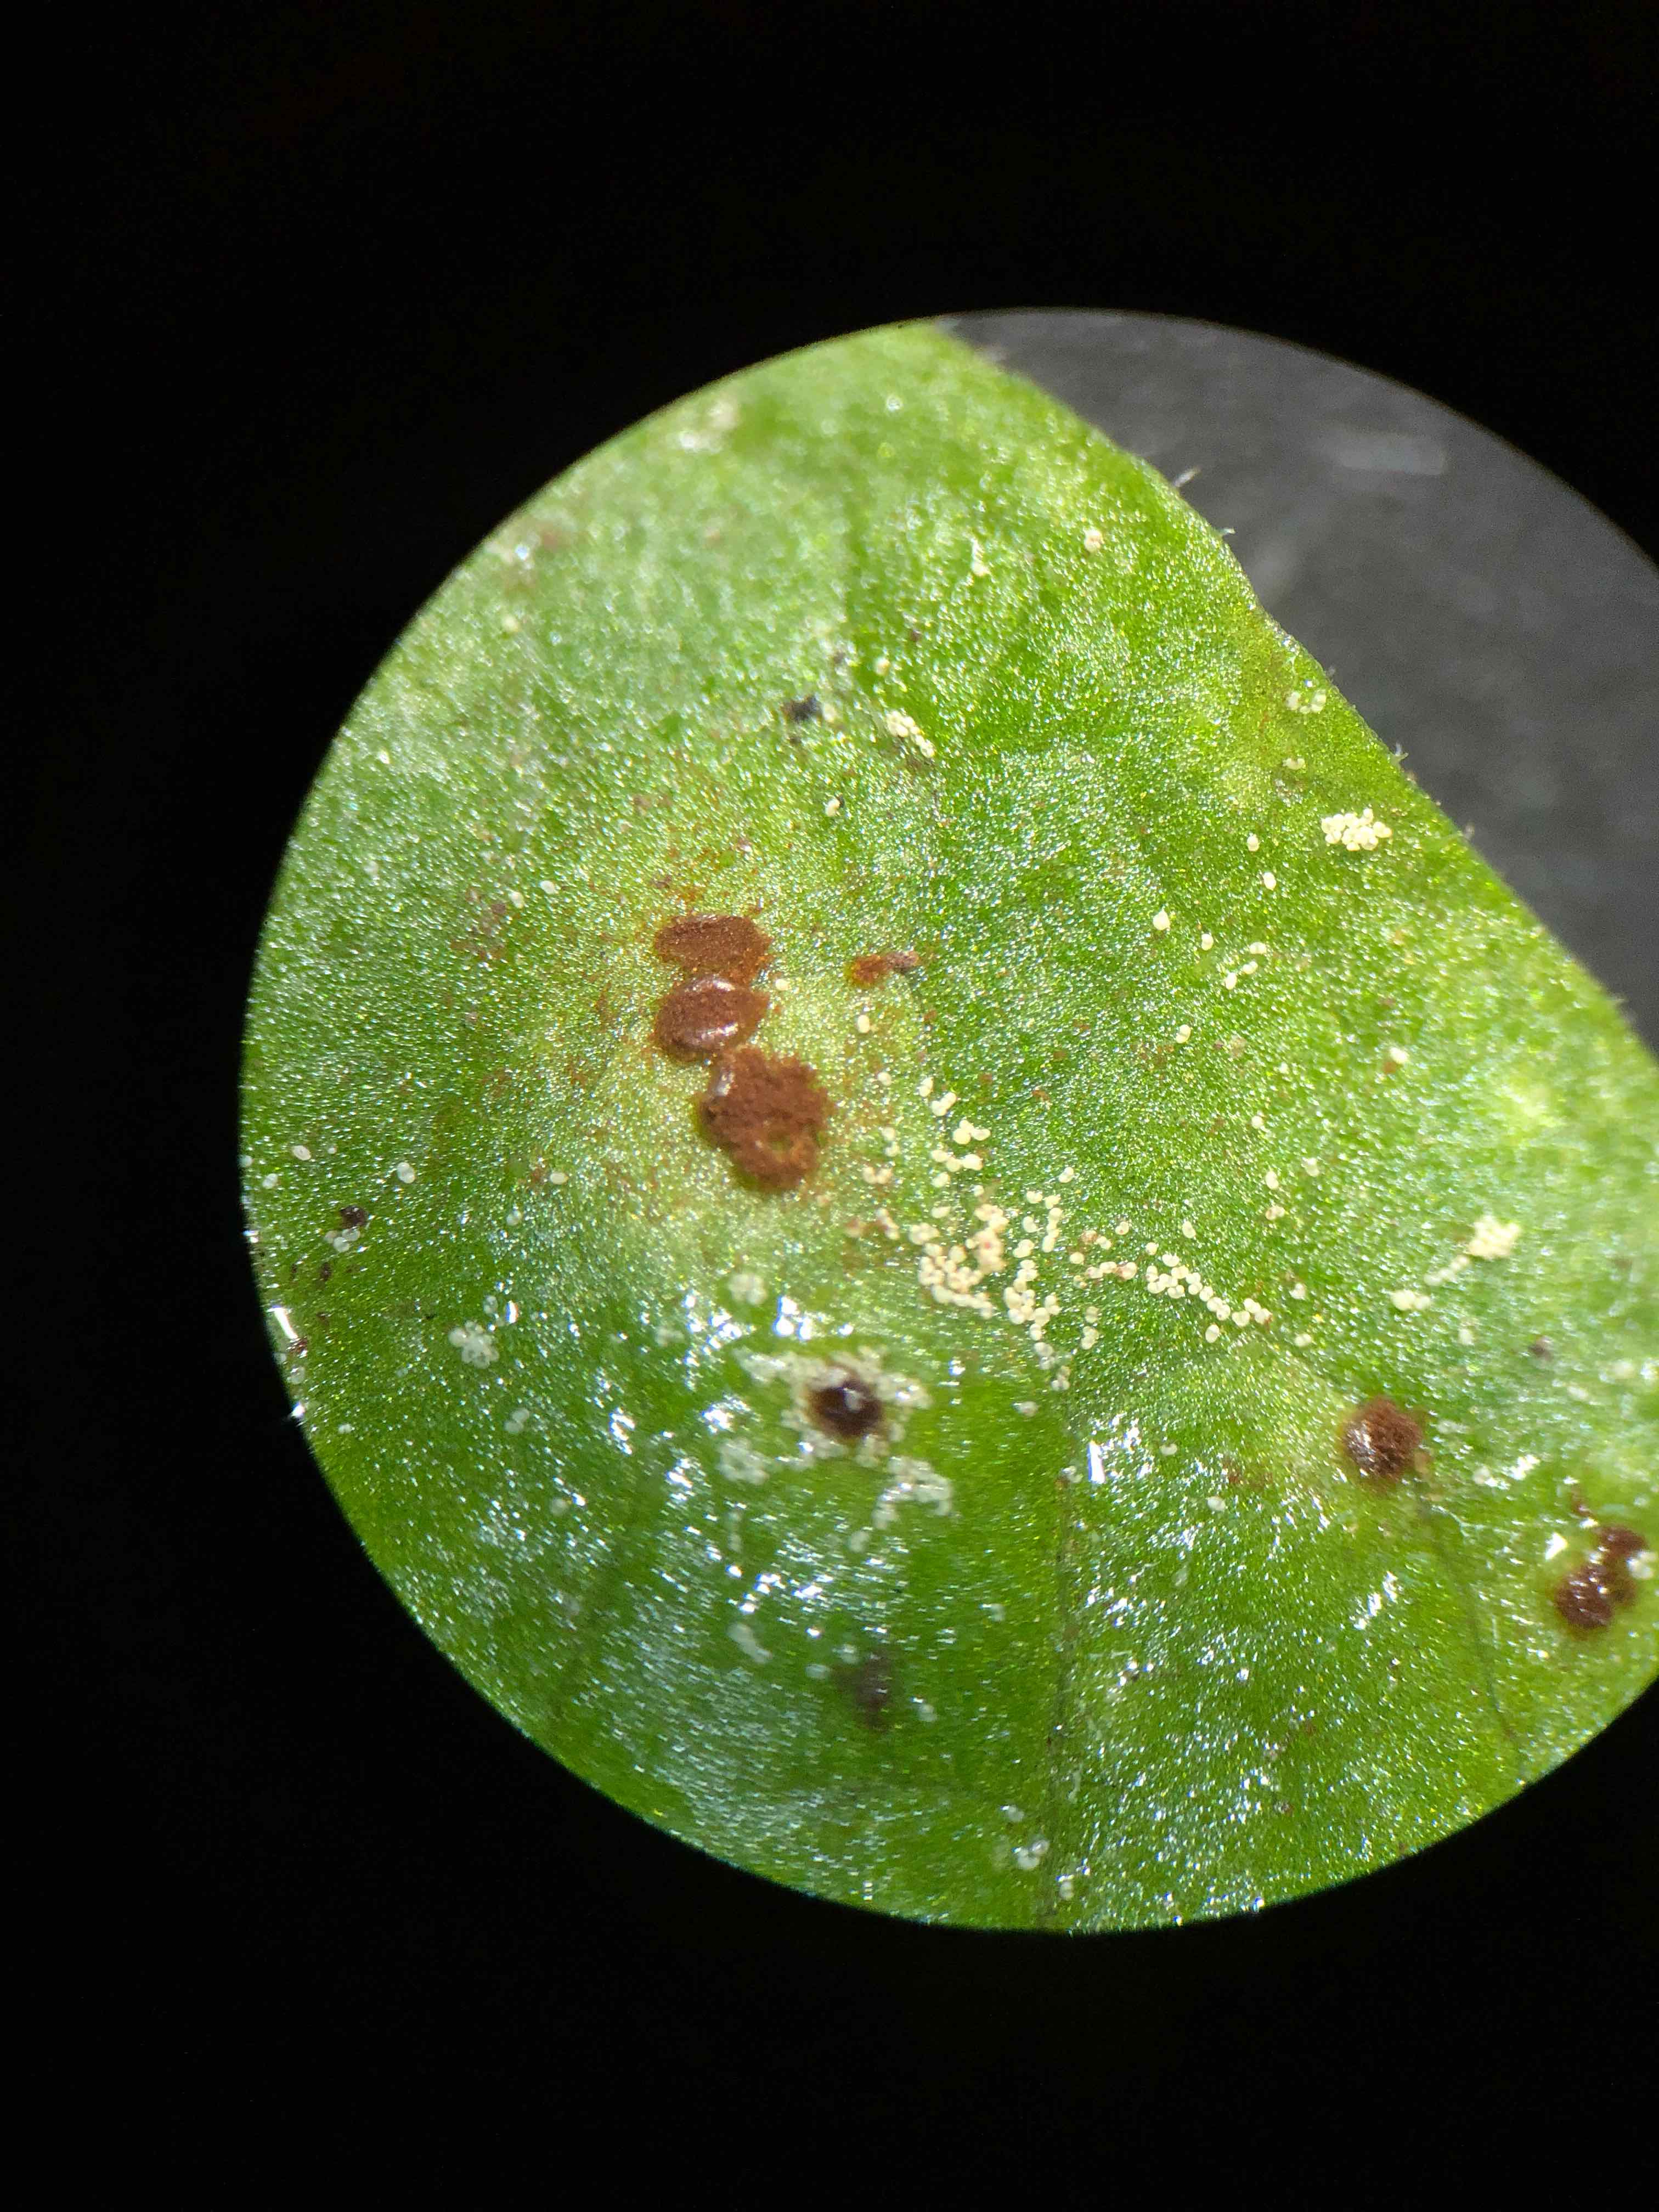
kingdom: Fungi
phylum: Basidiomycota
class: Pucciniomycetes
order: Pucciniales
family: Pucciniaceae
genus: Puccinia
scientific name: Puccinia lapsanae
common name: Nipplewort rust
